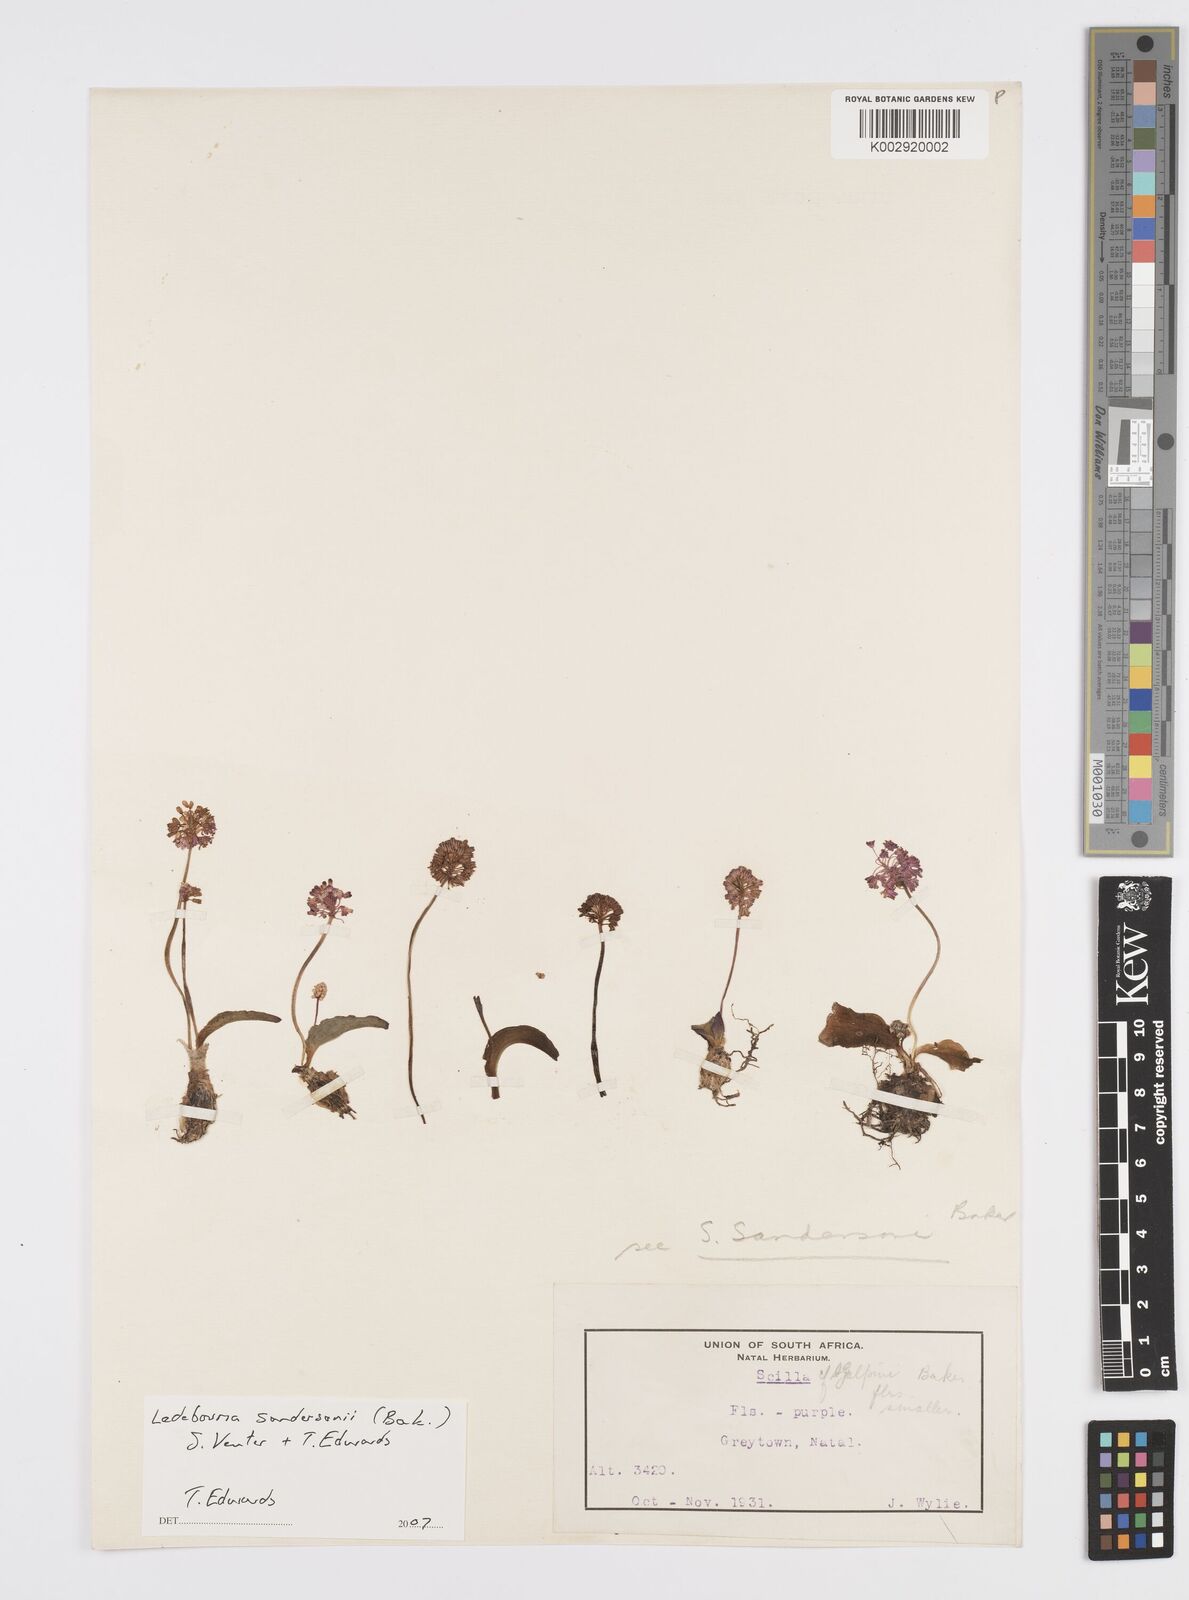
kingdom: Plantae
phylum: Tracheophyta
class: Liliopsida
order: Asparagales
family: Asparagaceae
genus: Ledebouria
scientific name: Ledebouria sandersonii
